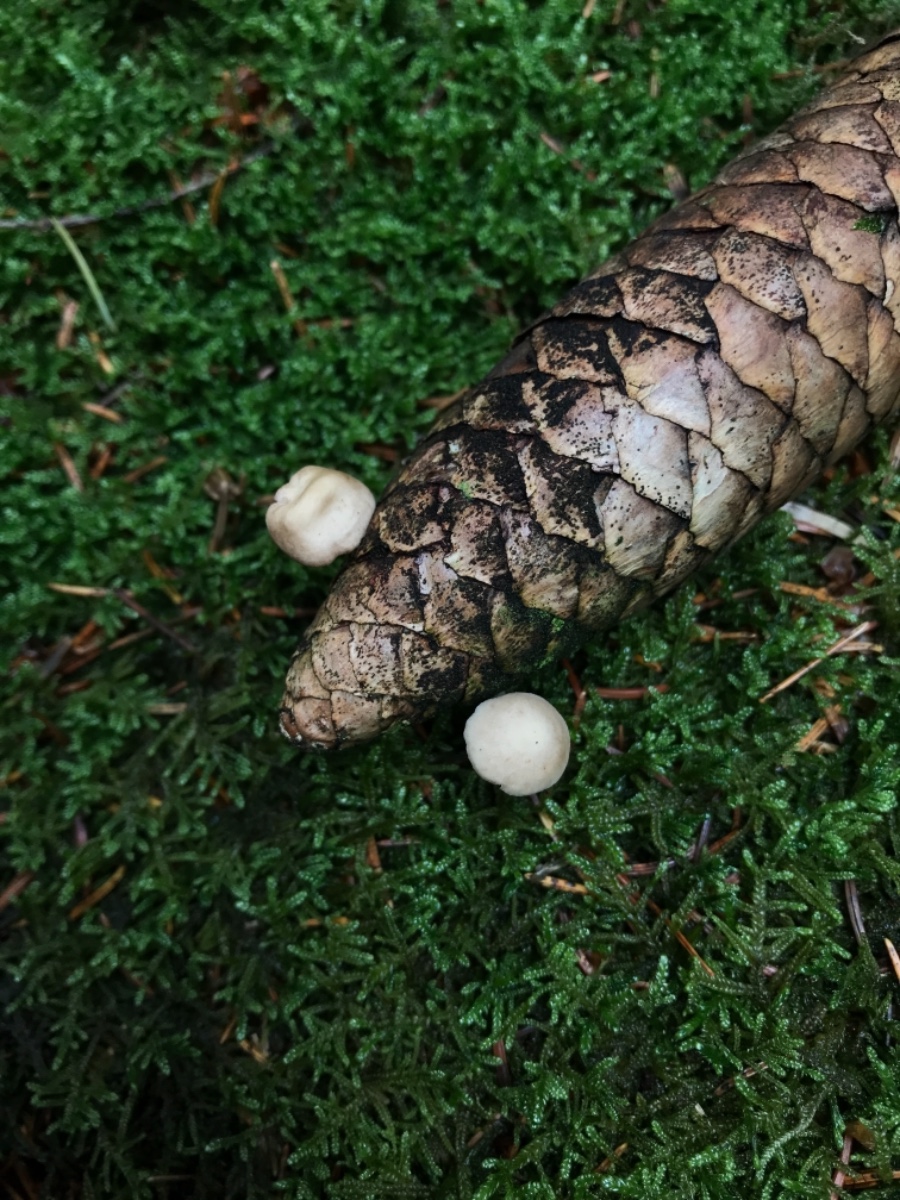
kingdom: Fungi
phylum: Basidiomycota
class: Agaricomycetes
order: Agaricales
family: Marasmiaceae
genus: Baeospora
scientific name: Baeospora myosura
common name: koglebruskhat
